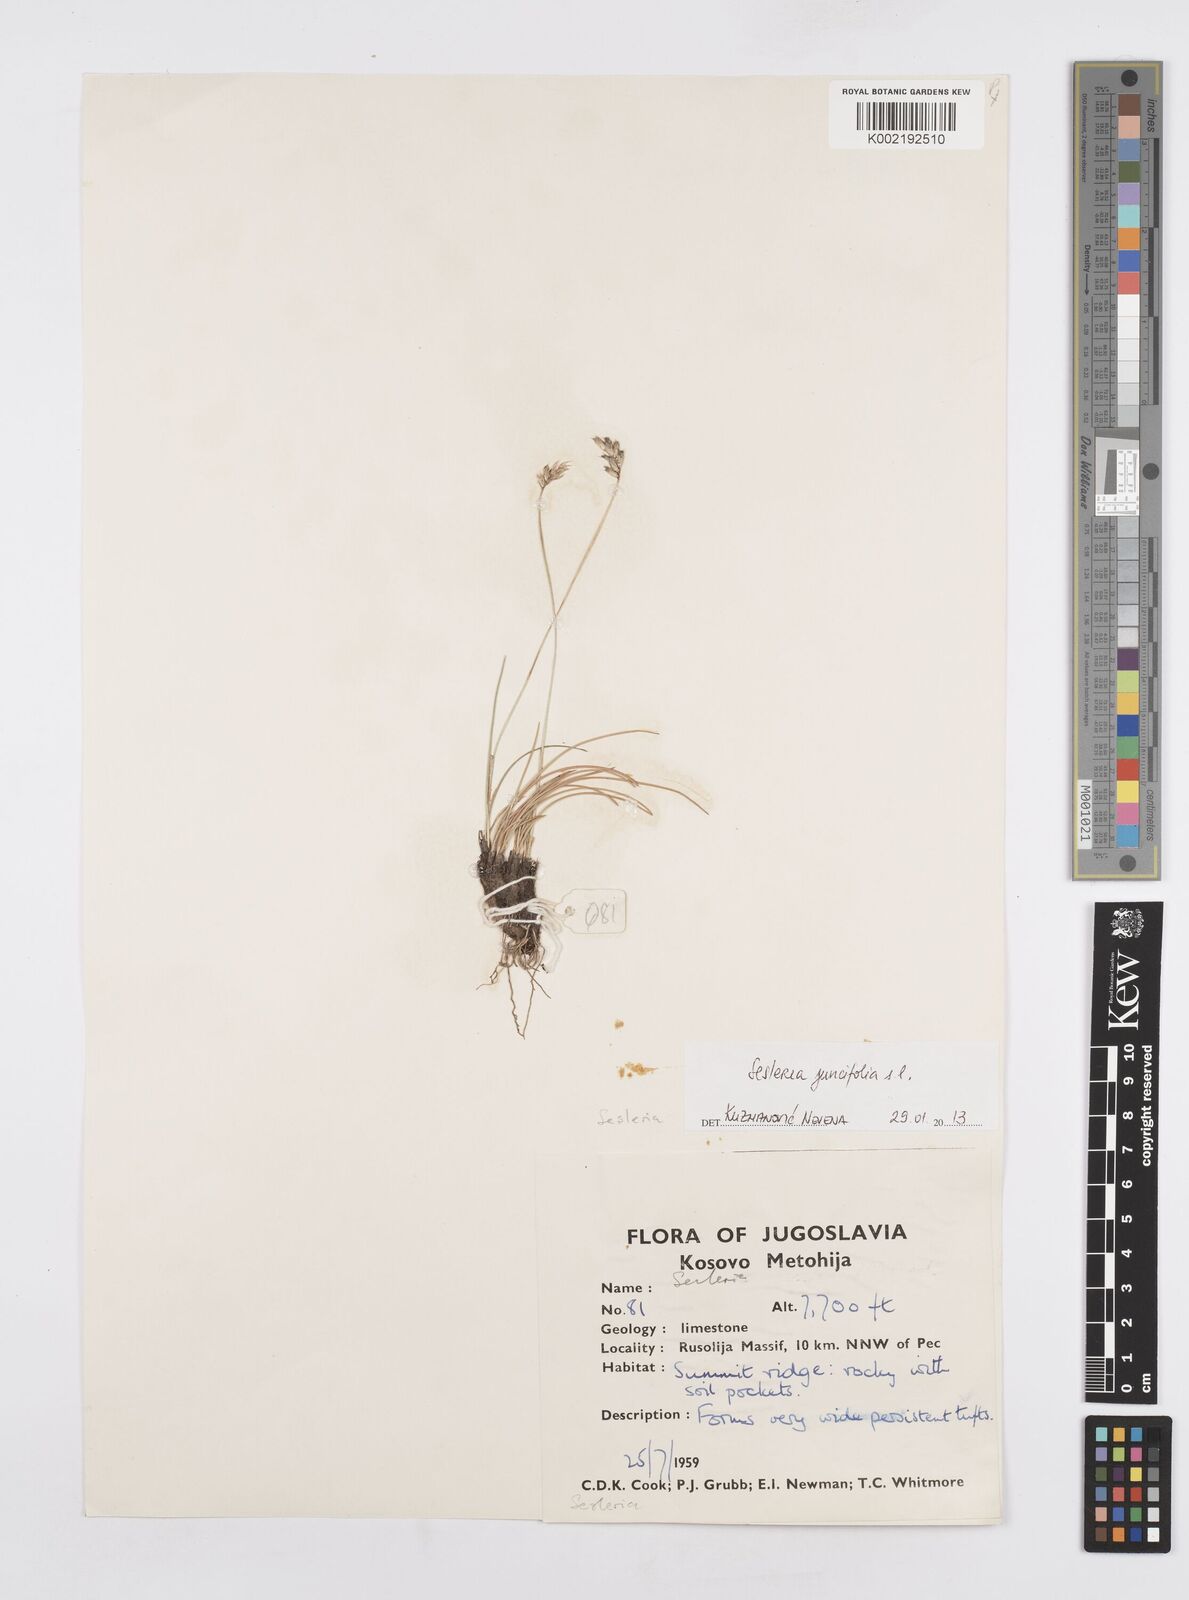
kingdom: Plantae
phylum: Tracheophyta
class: Liliopsida
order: Poales
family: Poaceae
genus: Sesleria
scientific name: Sesleria juncifolia
